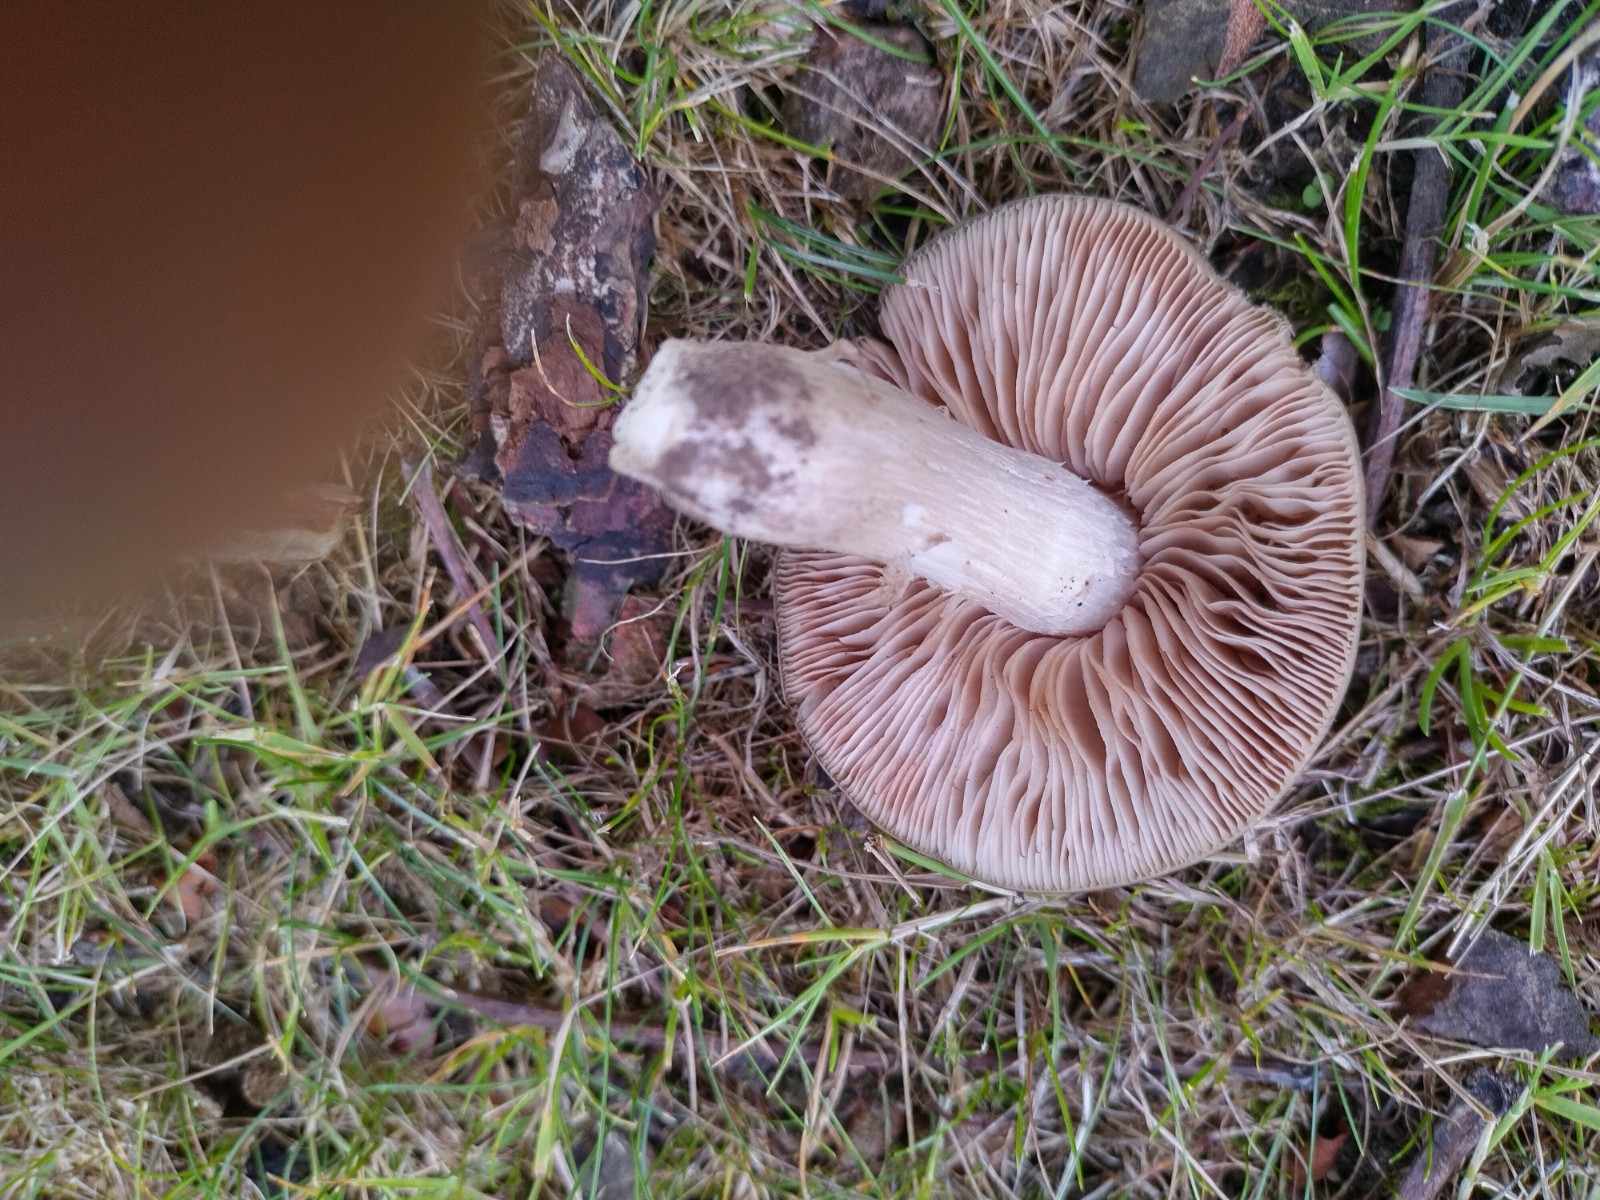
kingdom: Fungi
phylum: Basidiomycota
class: Agaricomycetes
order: Agaricales
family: Entolomataceae
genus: Entoloma
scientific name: Entoloma lividoalbum
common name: lysstokket rødblad
